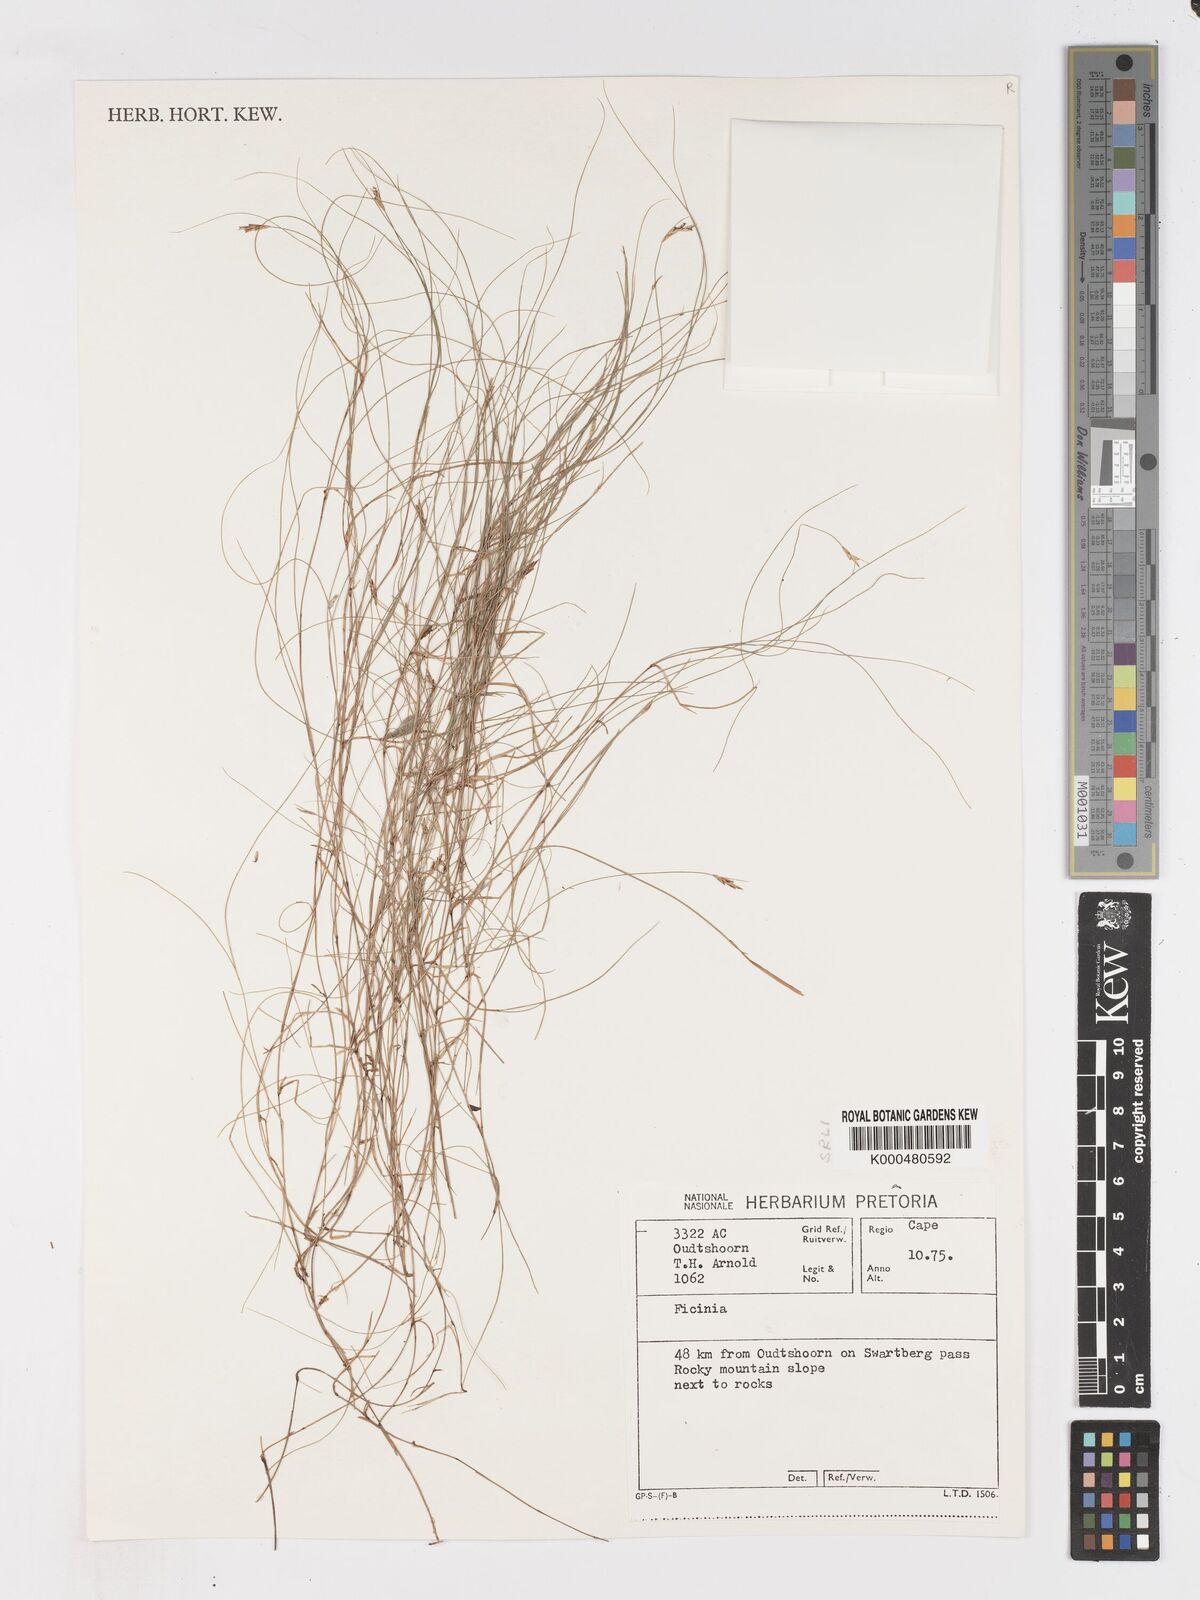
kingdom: Plantae
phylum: Tracheophyta
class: Liliopsida
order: Poales
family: Cyperaceae
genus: Ficinia
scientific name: Ficinia capillifolia
